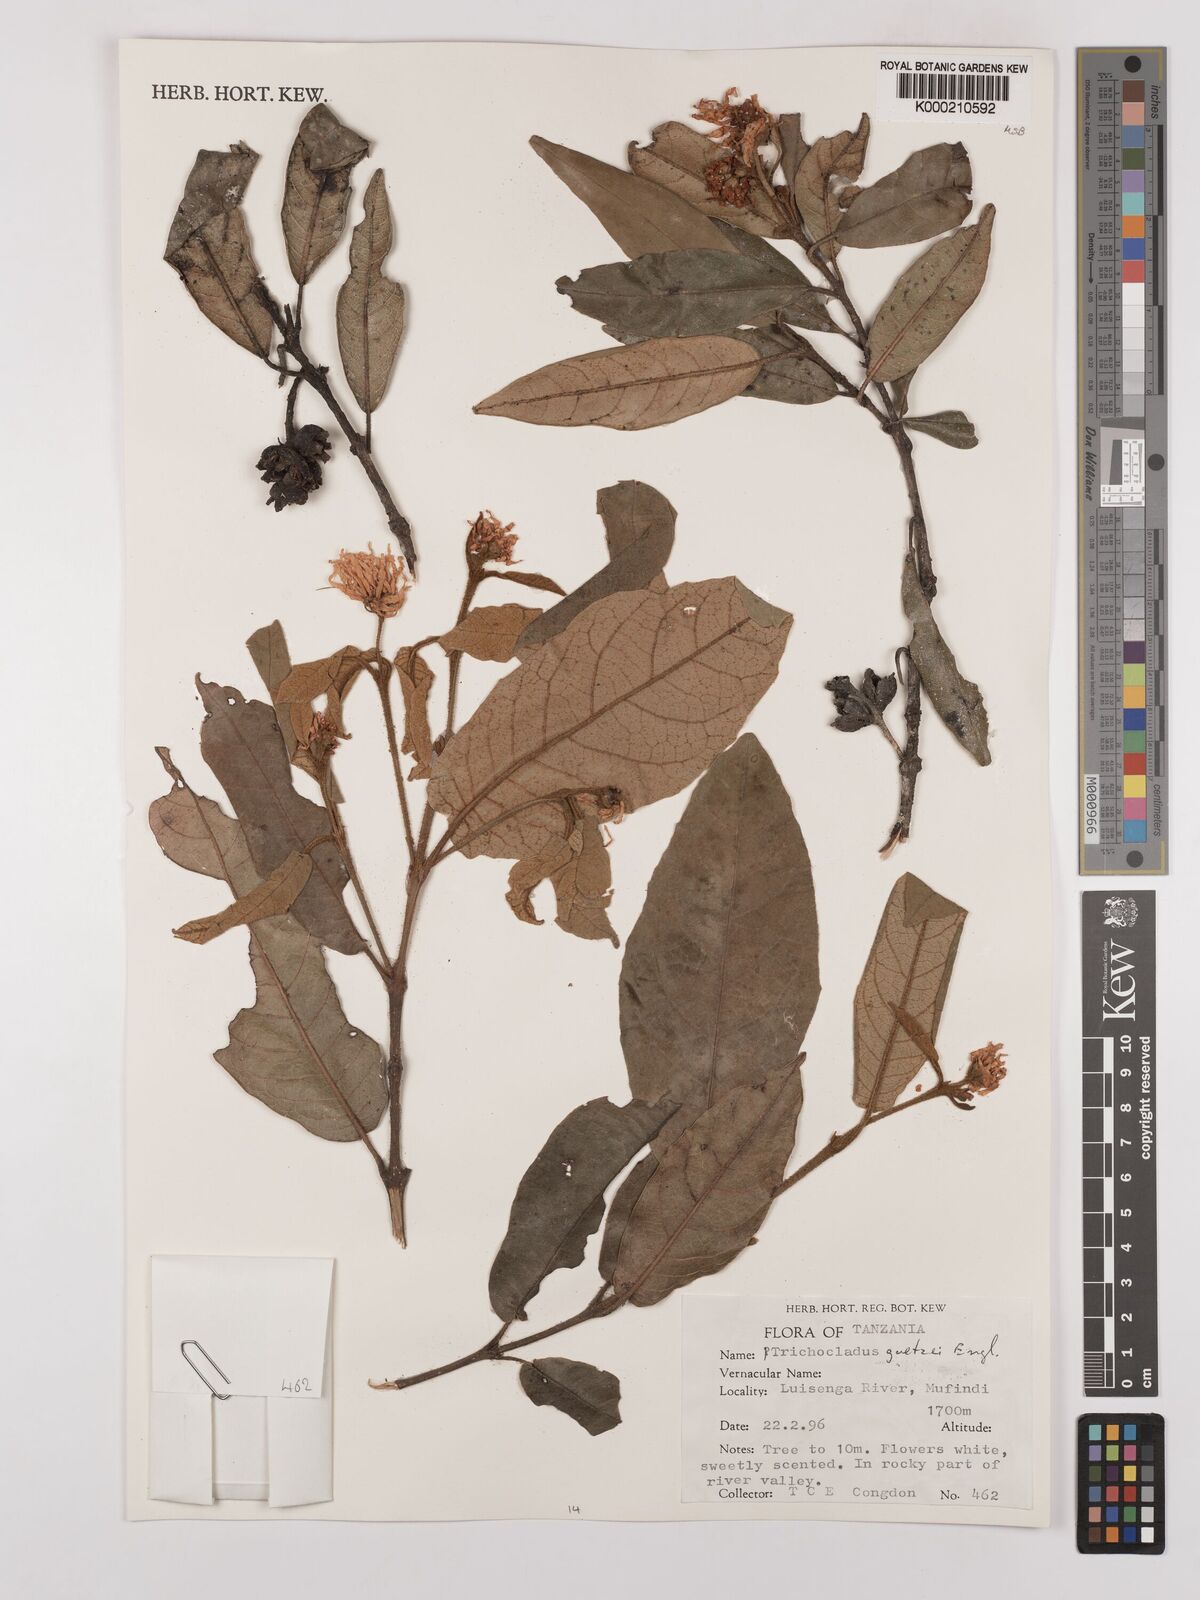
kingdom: Plantae
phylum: Tracheophyta
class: Magnoliopsida
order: Saxifragales
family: Hamamelidaceae
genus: Trichocladus
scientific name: Trichocladus goetzei
